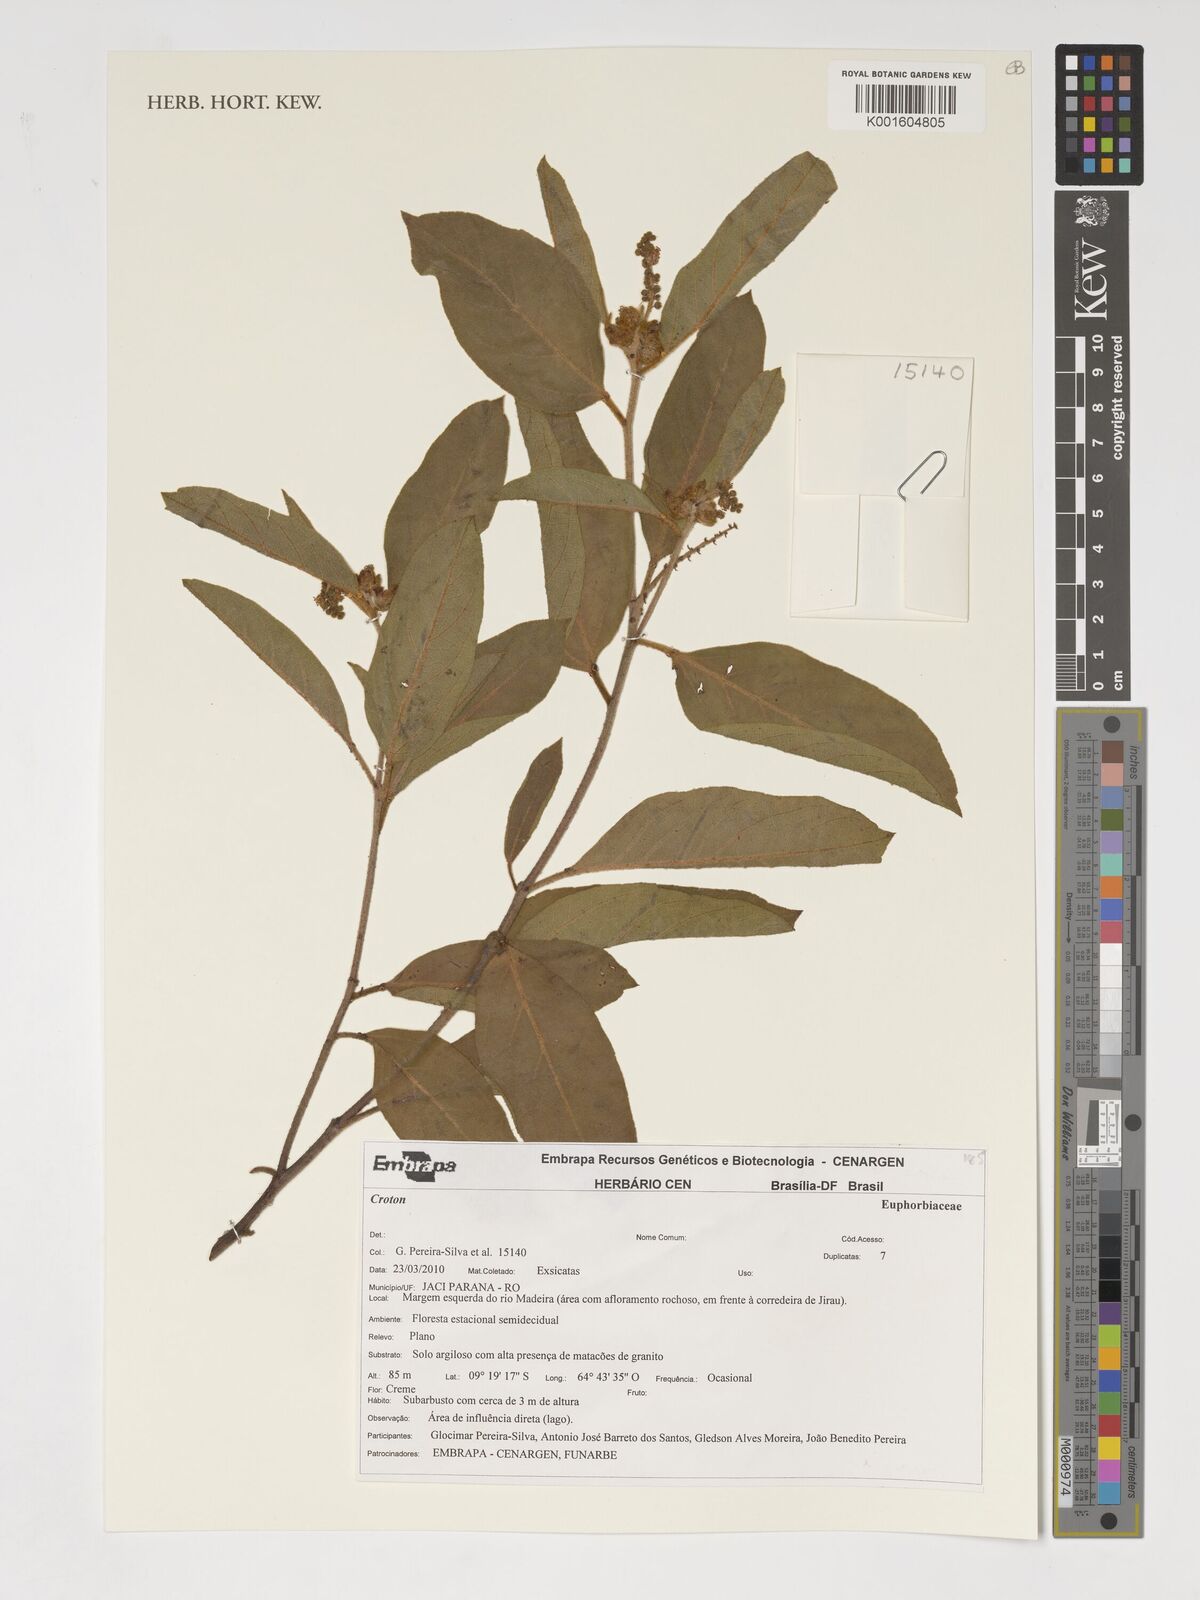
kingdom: Plantae
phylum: Tracheophyta
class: Magnoliopsida
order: Malpighiales
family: Euphorbiaceae
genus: Croton
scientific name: Croton
